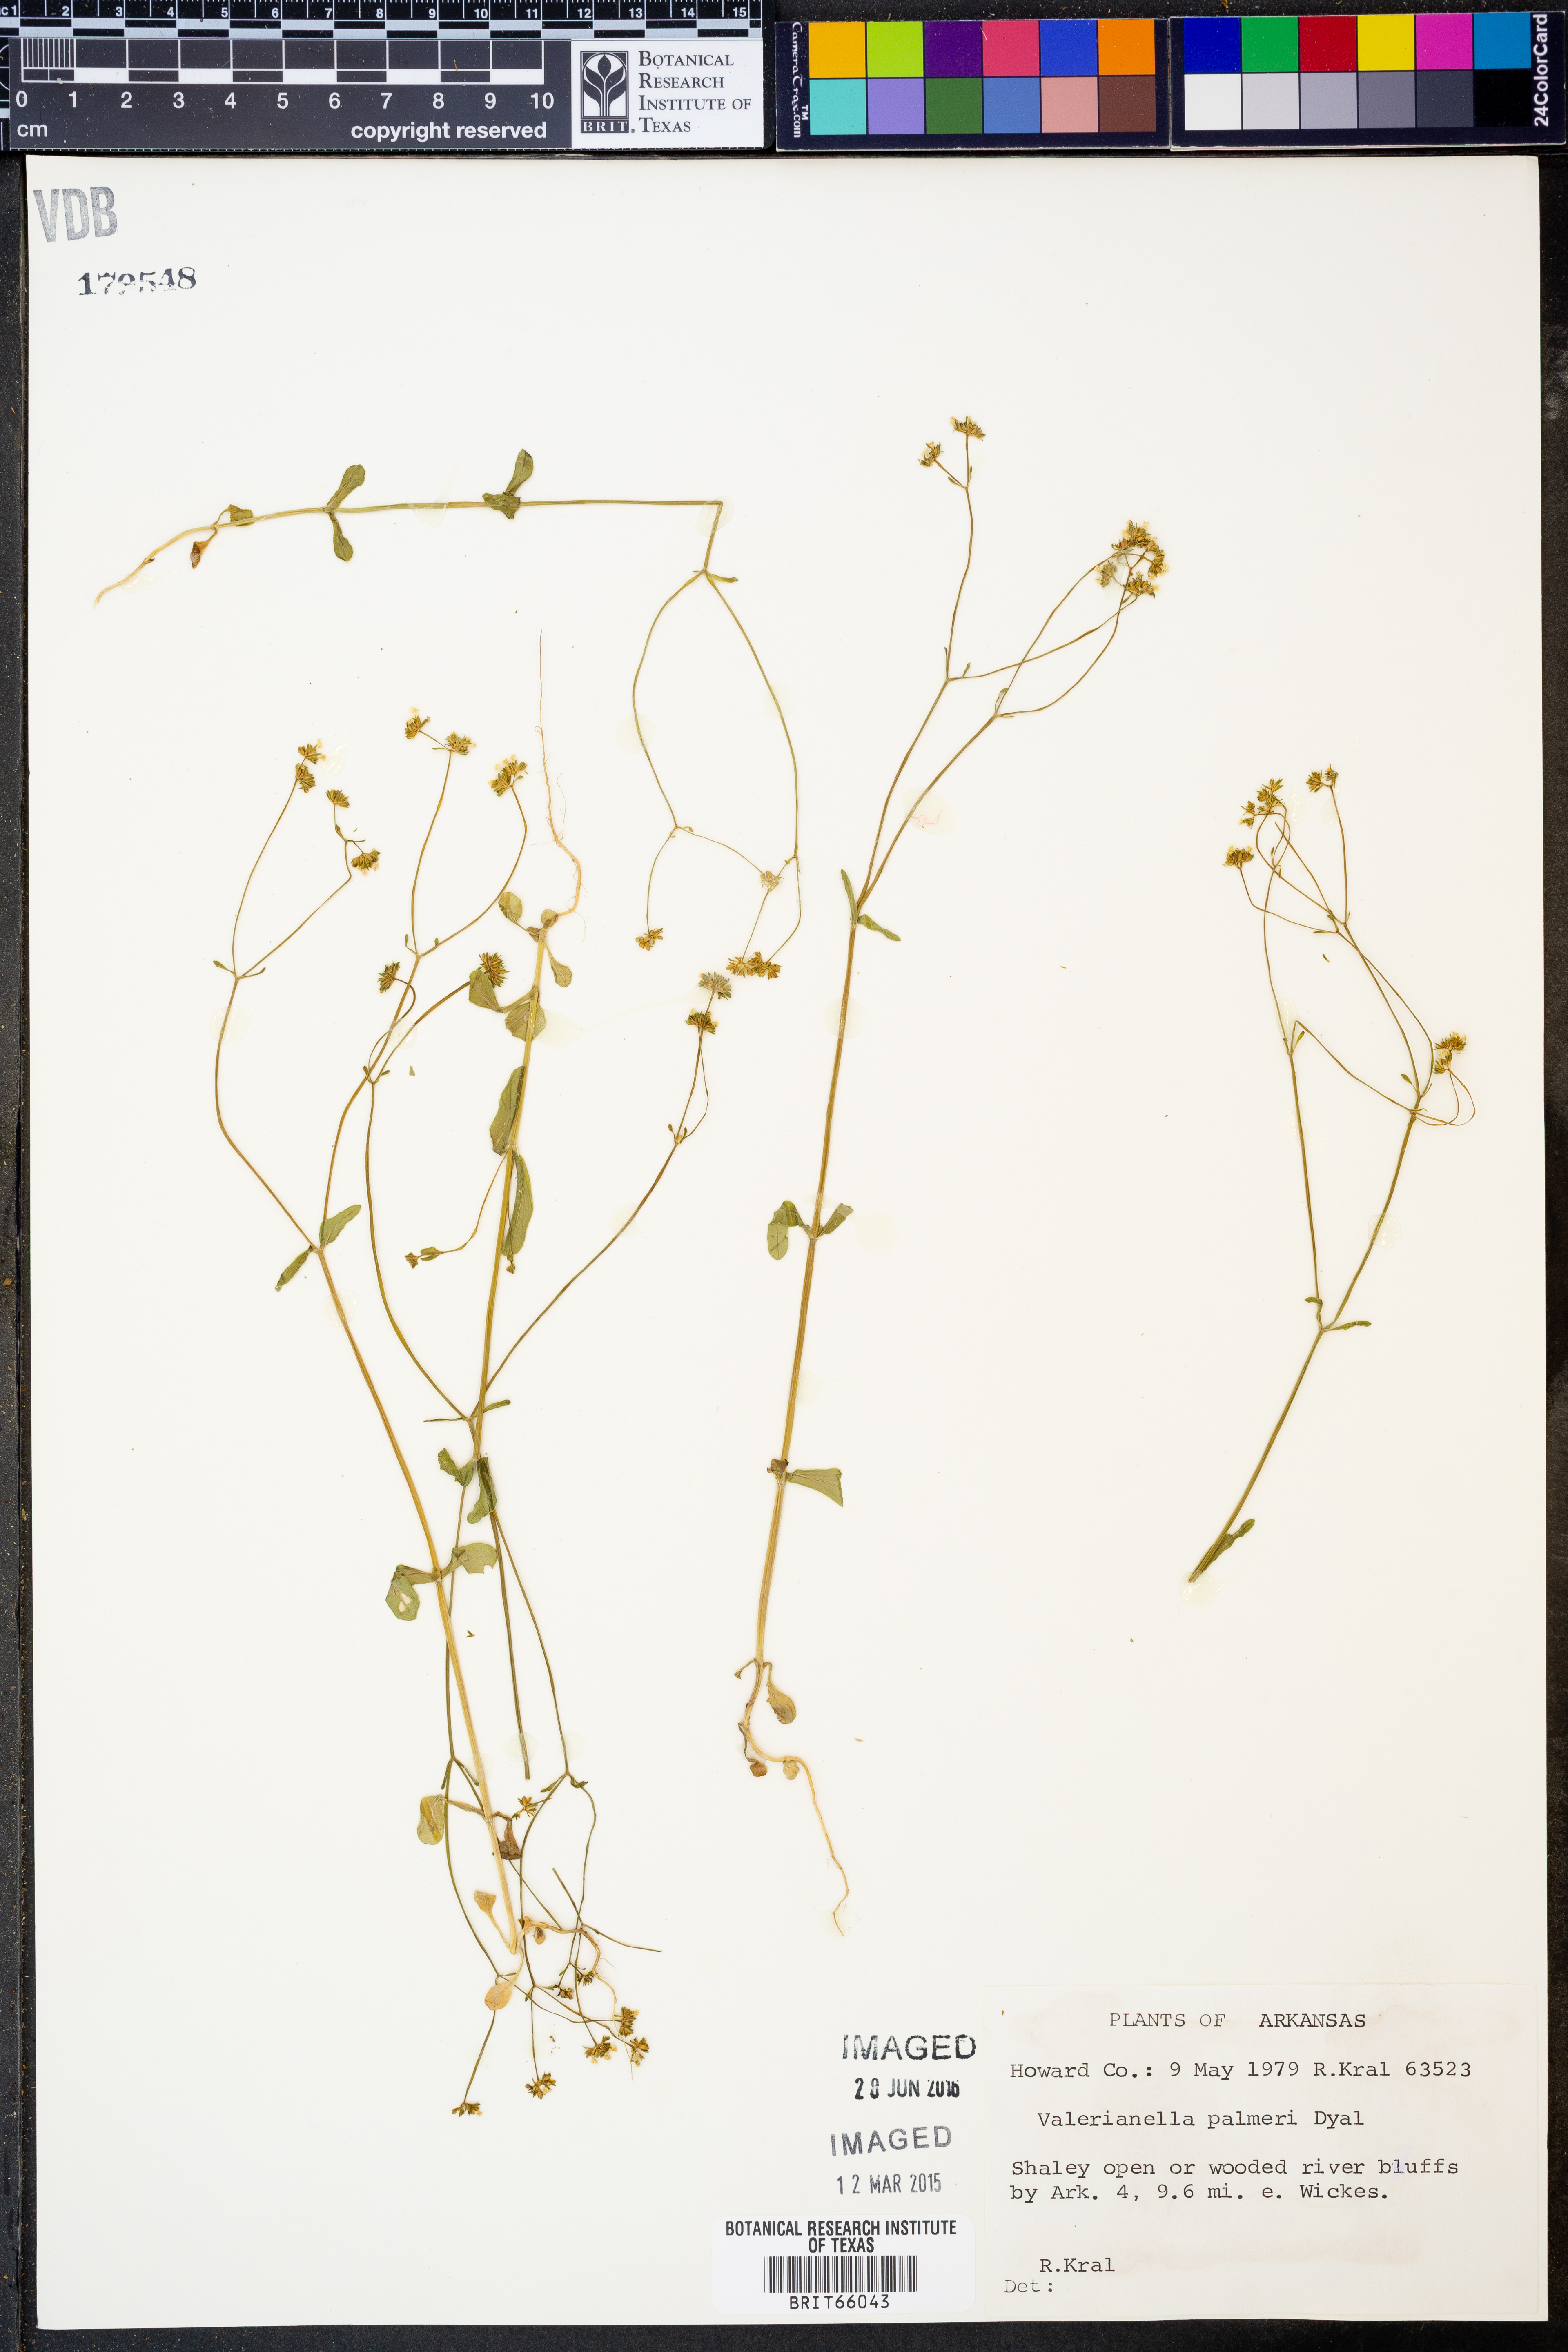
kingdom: Plantae
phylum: Tracheophyta
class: Magnoliopsida
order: Dipsacales
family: Caprifoliaceae
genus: Valerianella
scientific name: Valerianella palmeri
